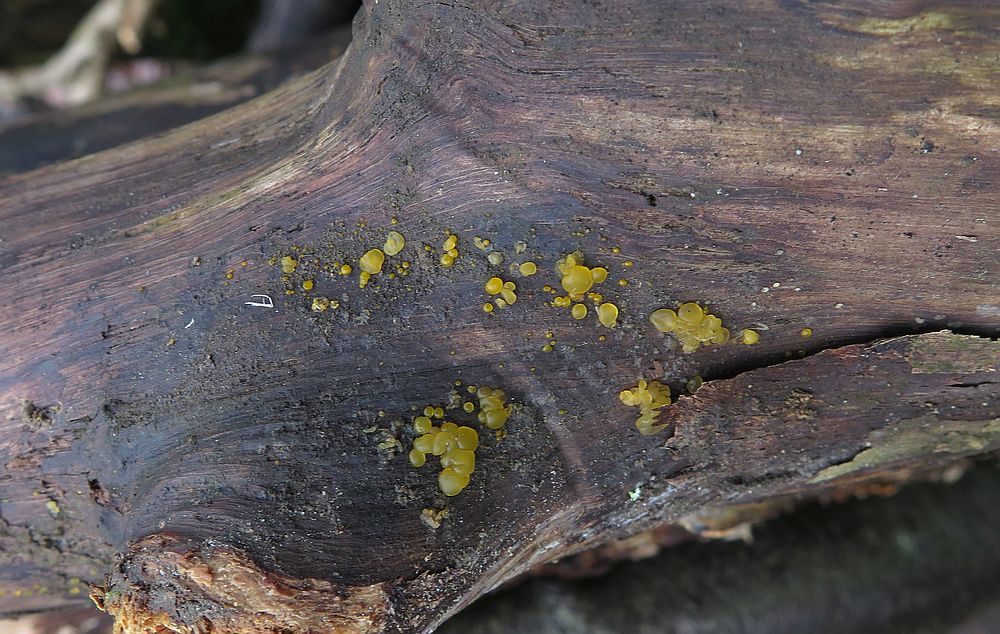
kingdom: Fungi
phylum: Basidiomycota
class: Dacrymycetes
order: Dacrymycetales
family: Dacrymycetaceae
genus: Dacrymyces
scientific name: Dacrymyces lacrymalis
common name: rynket tåresvamp
